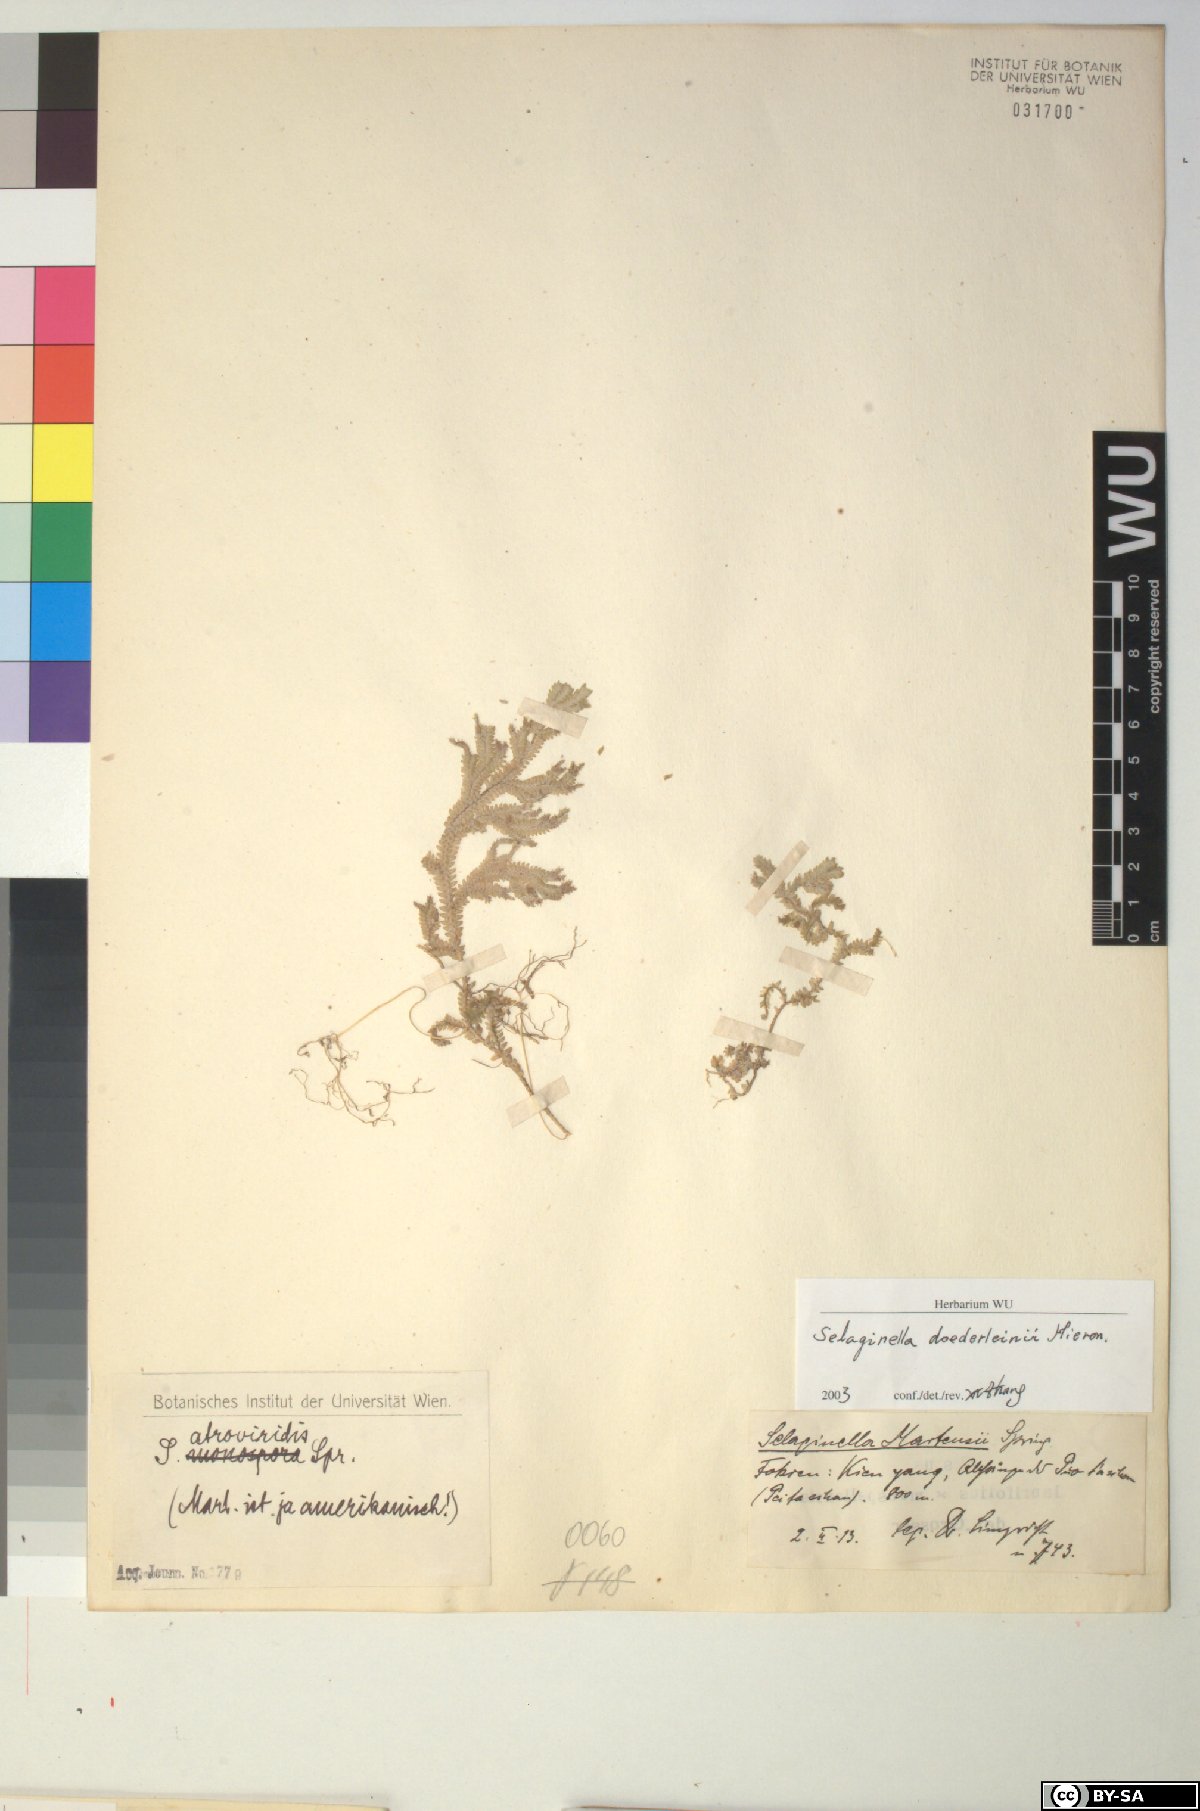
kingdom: Plantae
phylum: Tracheophyta
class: Lycopodiopsida
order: Selaginellales
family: Selaginellaceae
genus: Selaginella
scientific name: Selaginella doederleinii
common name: Greater selaginella
